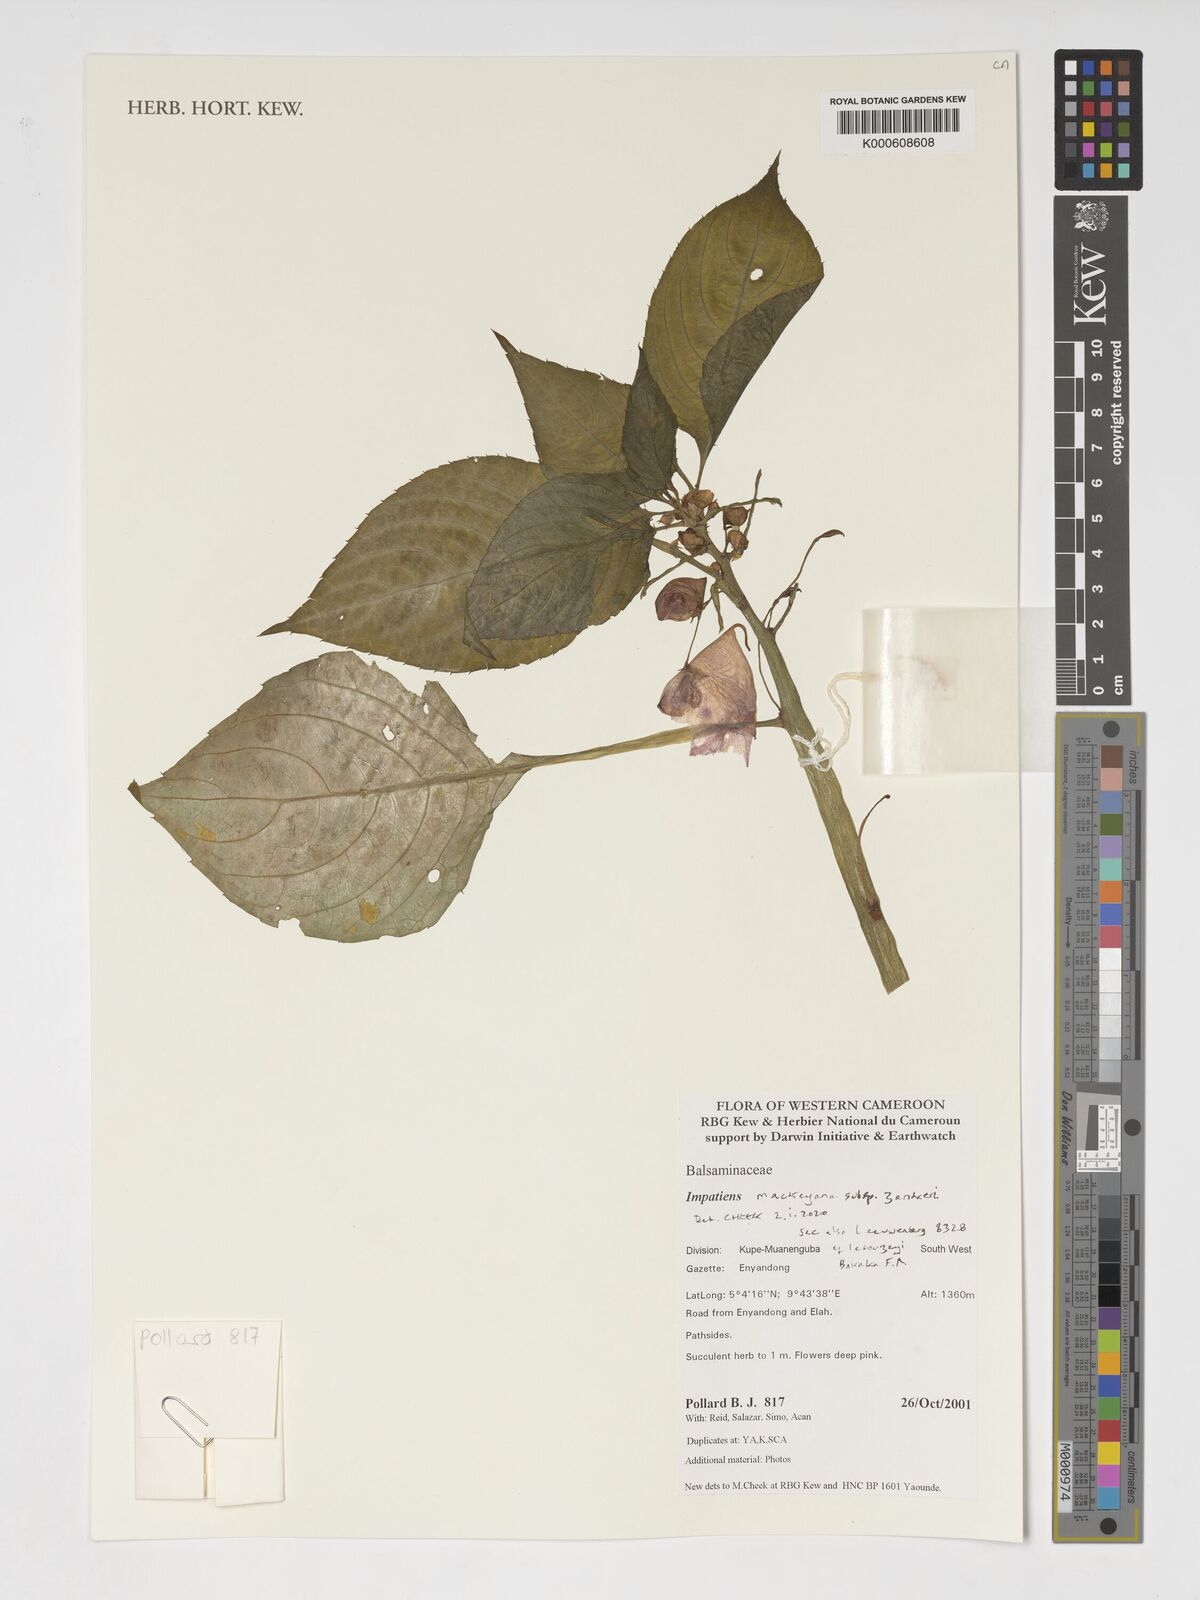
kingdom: Plantae
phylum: Tracheophyta
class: Magnoliopsida
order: Ericales
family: Balsaminaceae
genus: Impatiens
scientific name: Impatiens mackeyana
